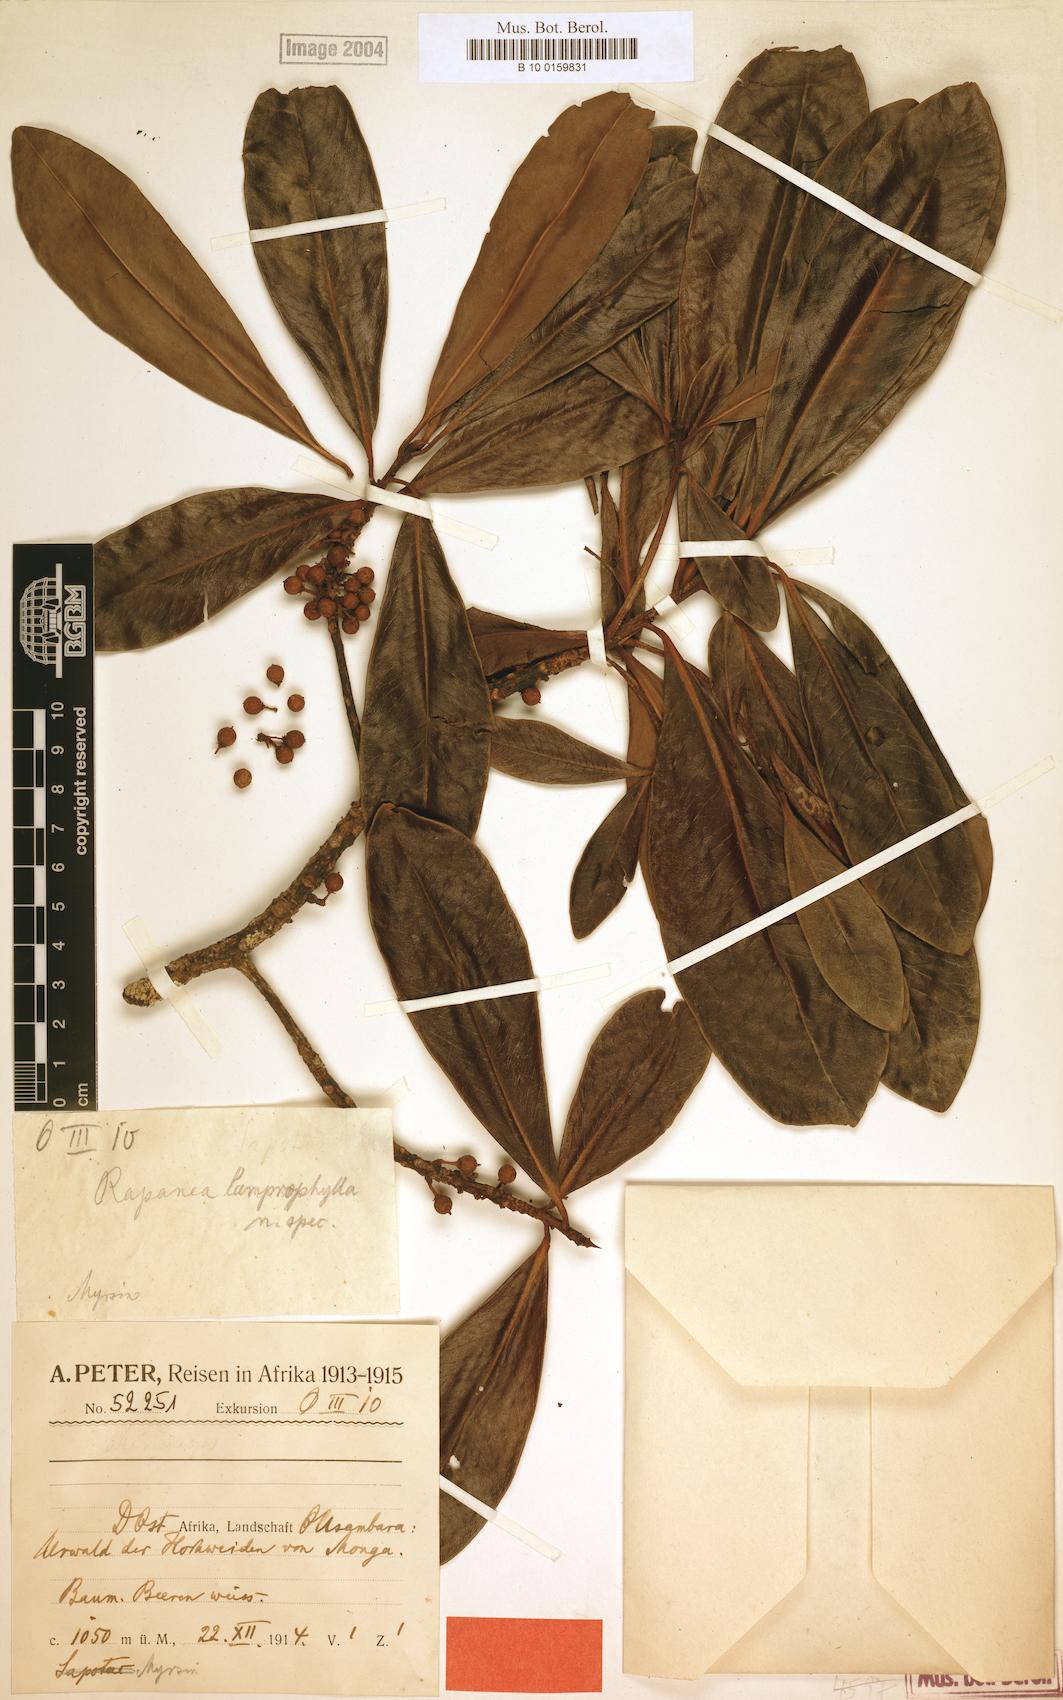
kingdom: Plantae
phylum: Tracheophyta
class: Magnoliopsida
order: Ericales
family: Primulaceae
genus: Myrsine
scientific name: Myrsine
